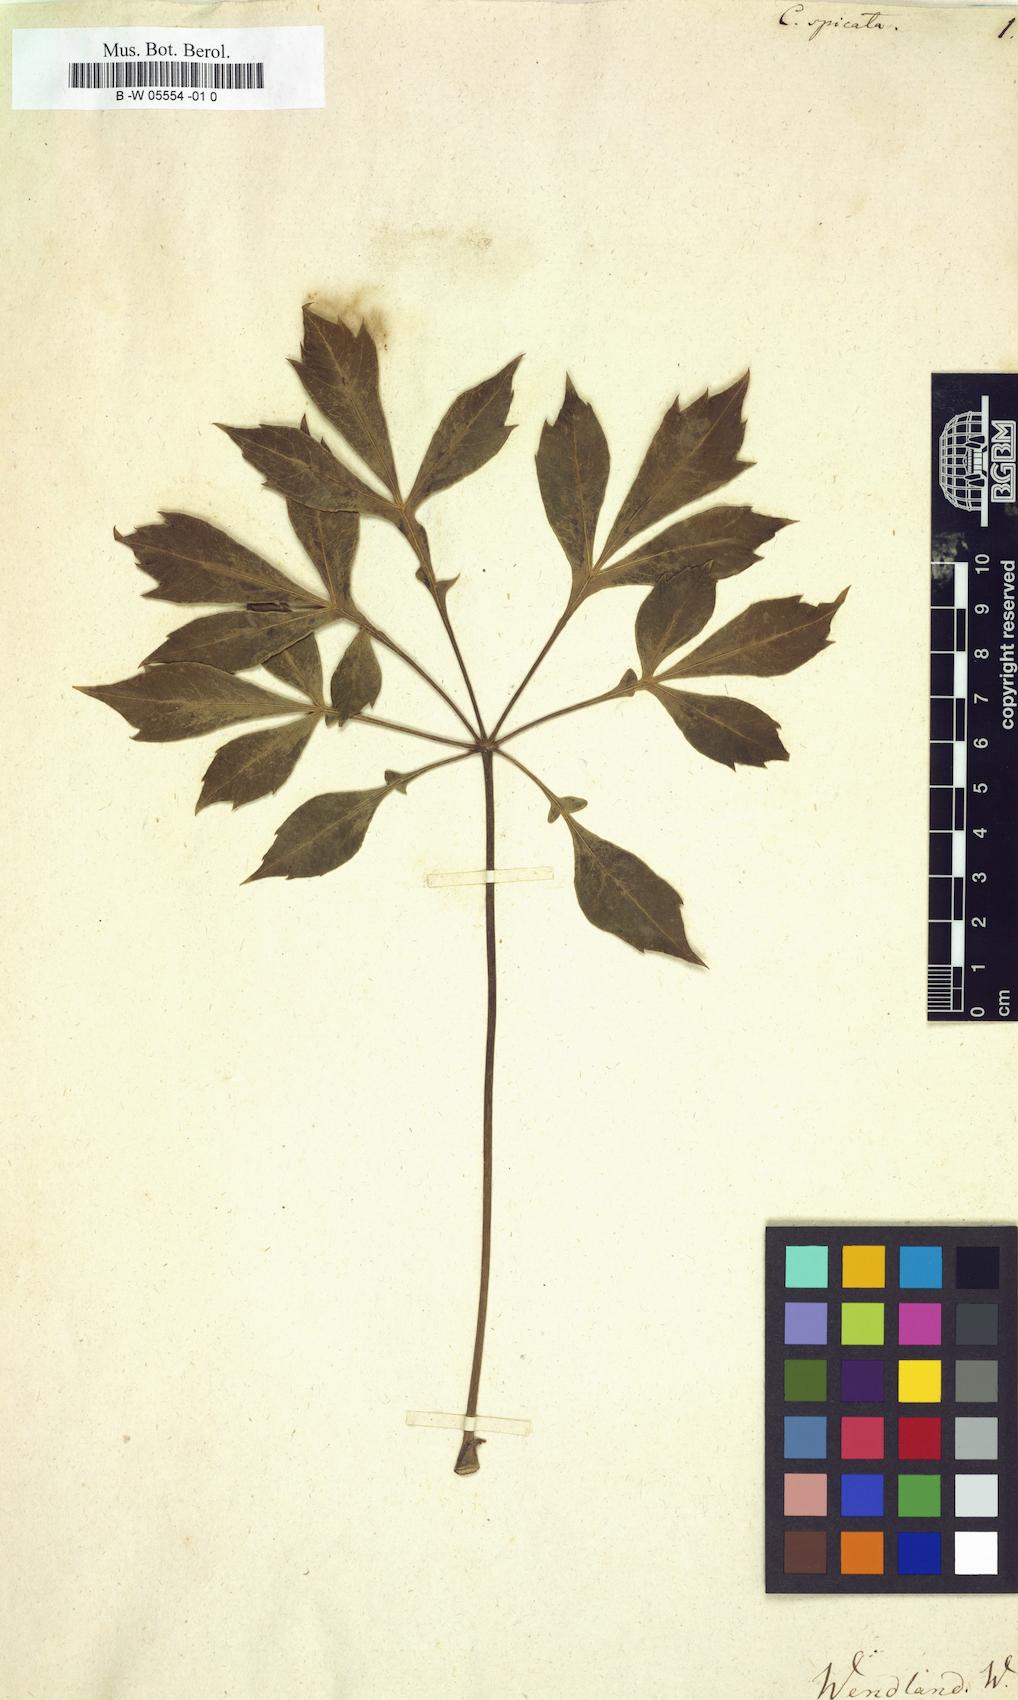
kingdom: Plantae
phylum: Tracheophyta
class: Magnoliopsida
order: Apiales
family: Araliaceae
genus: Cussonia
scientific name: Cussonia spicata
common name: Common cabbagetree
